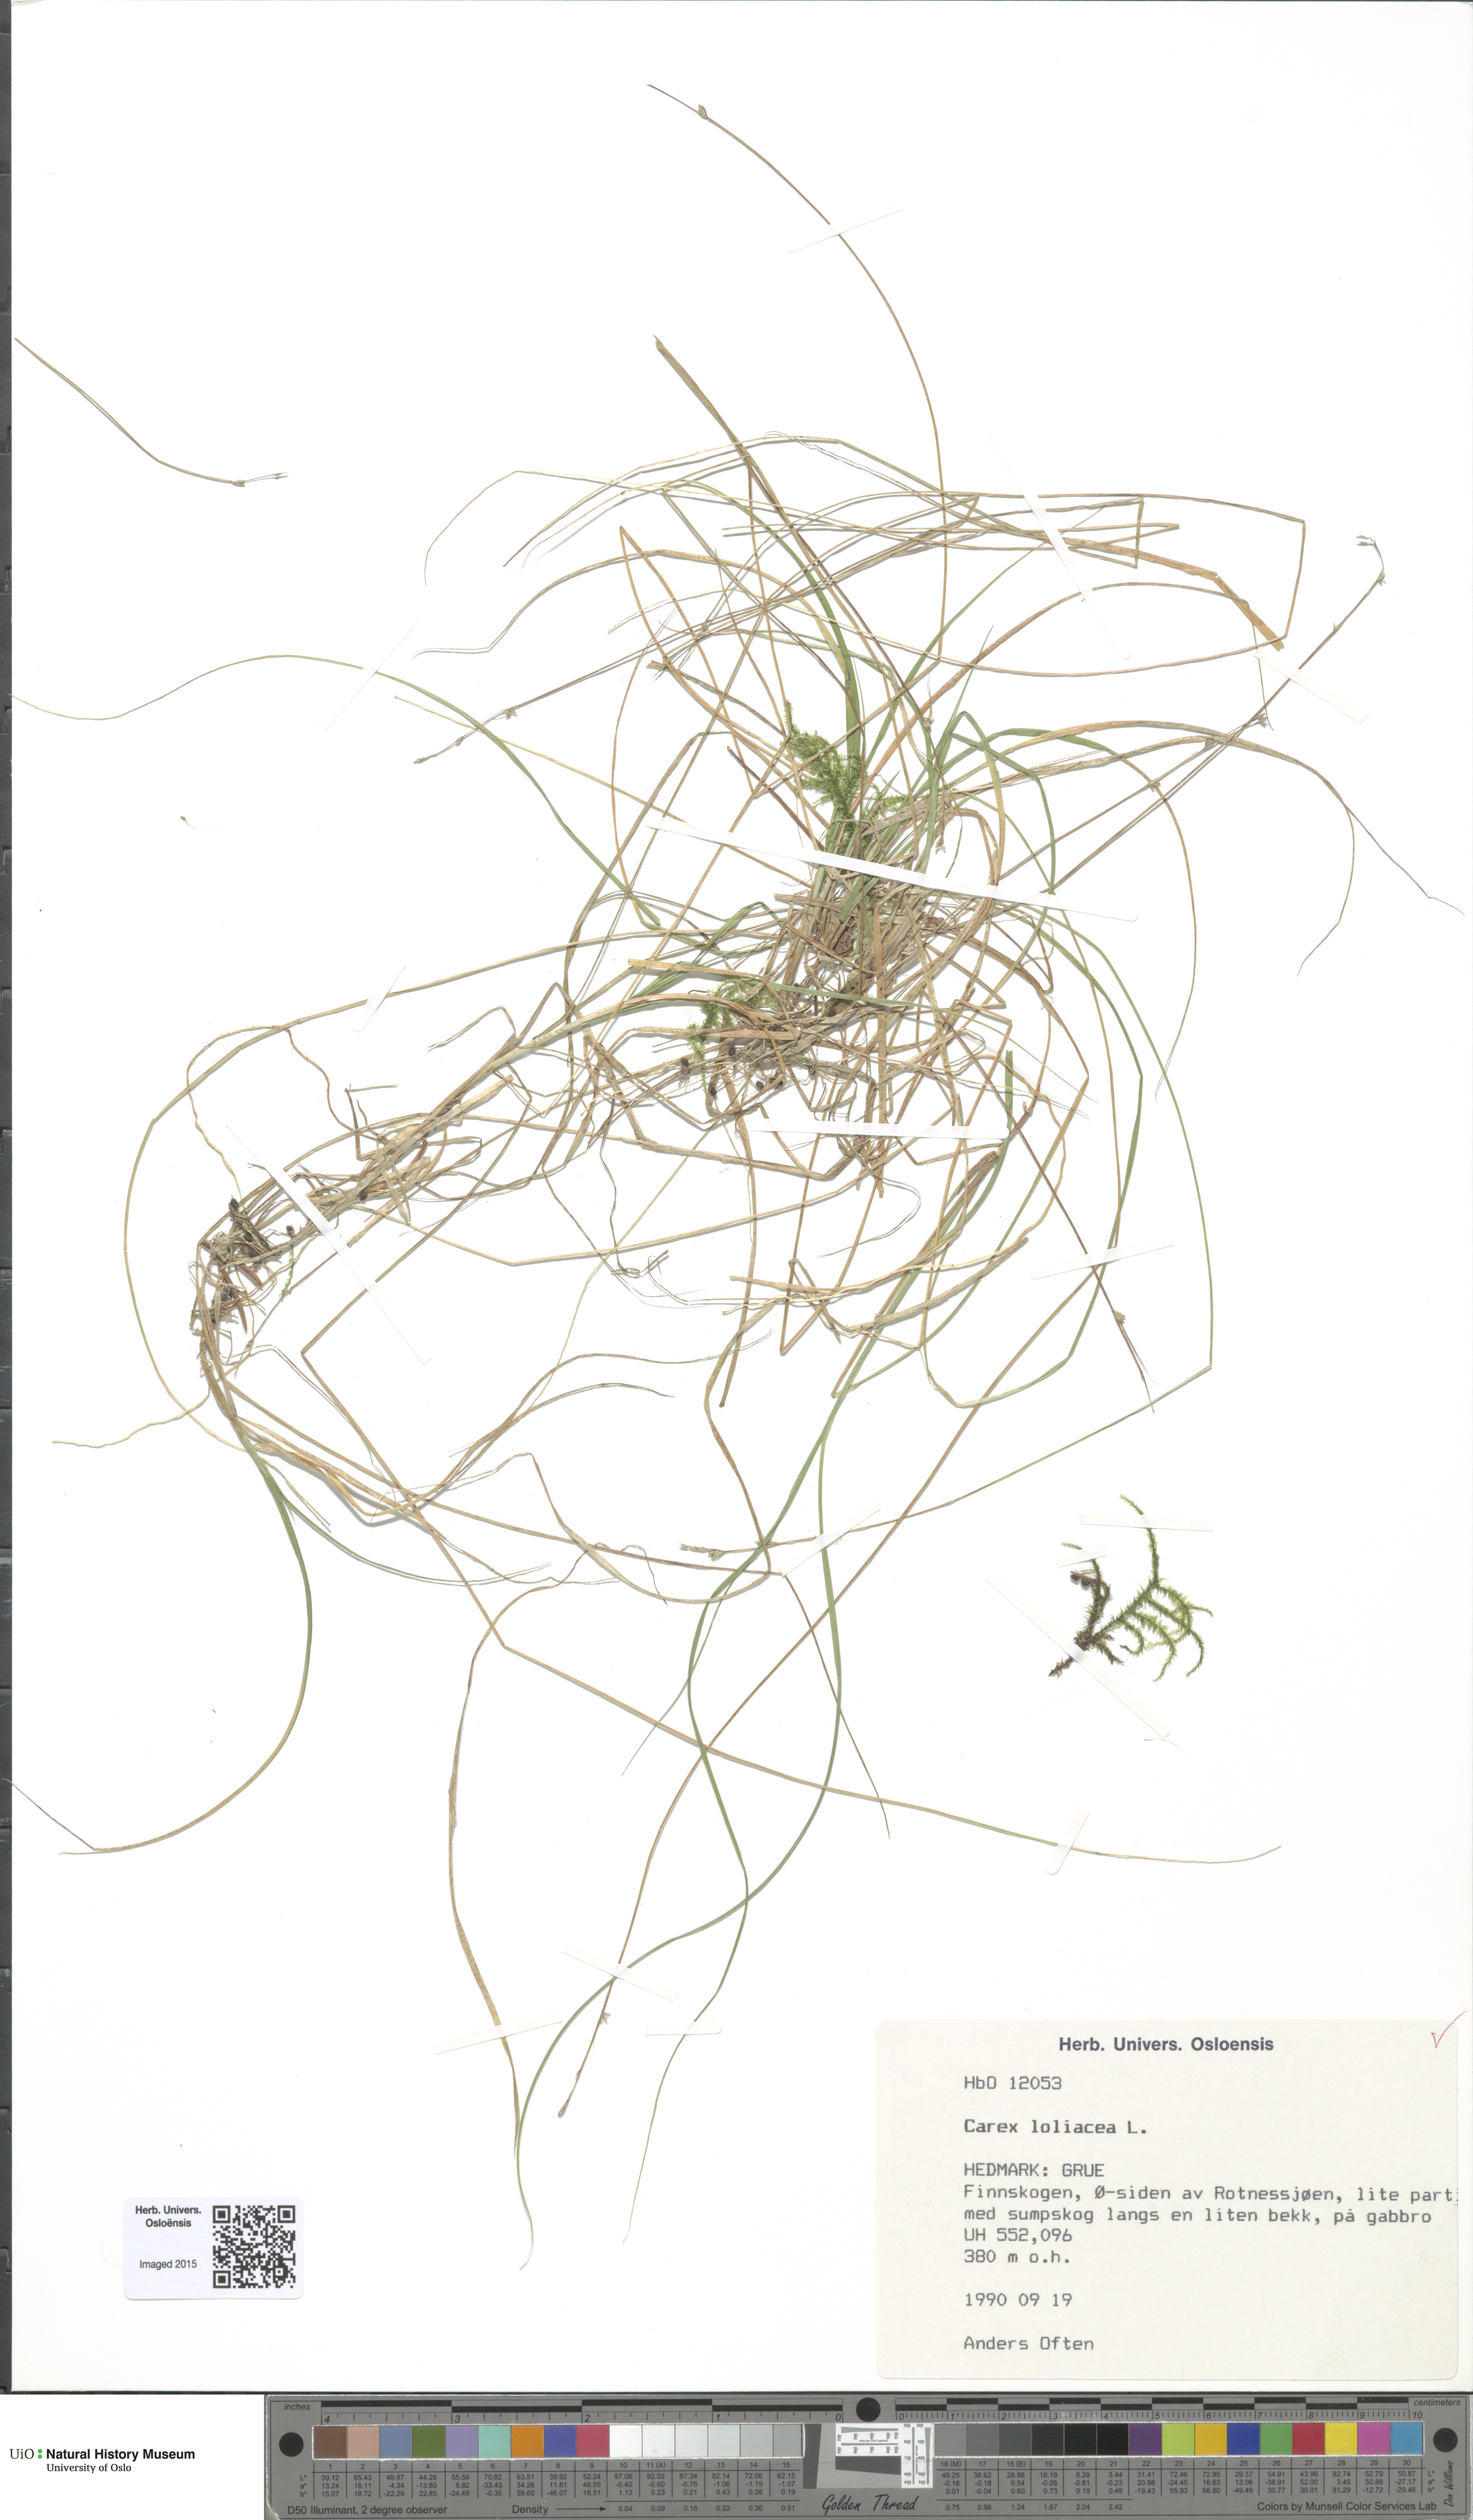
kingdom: Plantae
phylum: Tracheophyta
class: Liliopsida
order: Poales
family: Cyperaceae
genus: Carex
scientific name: Carex loliacea
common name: Ryegrass sedge
